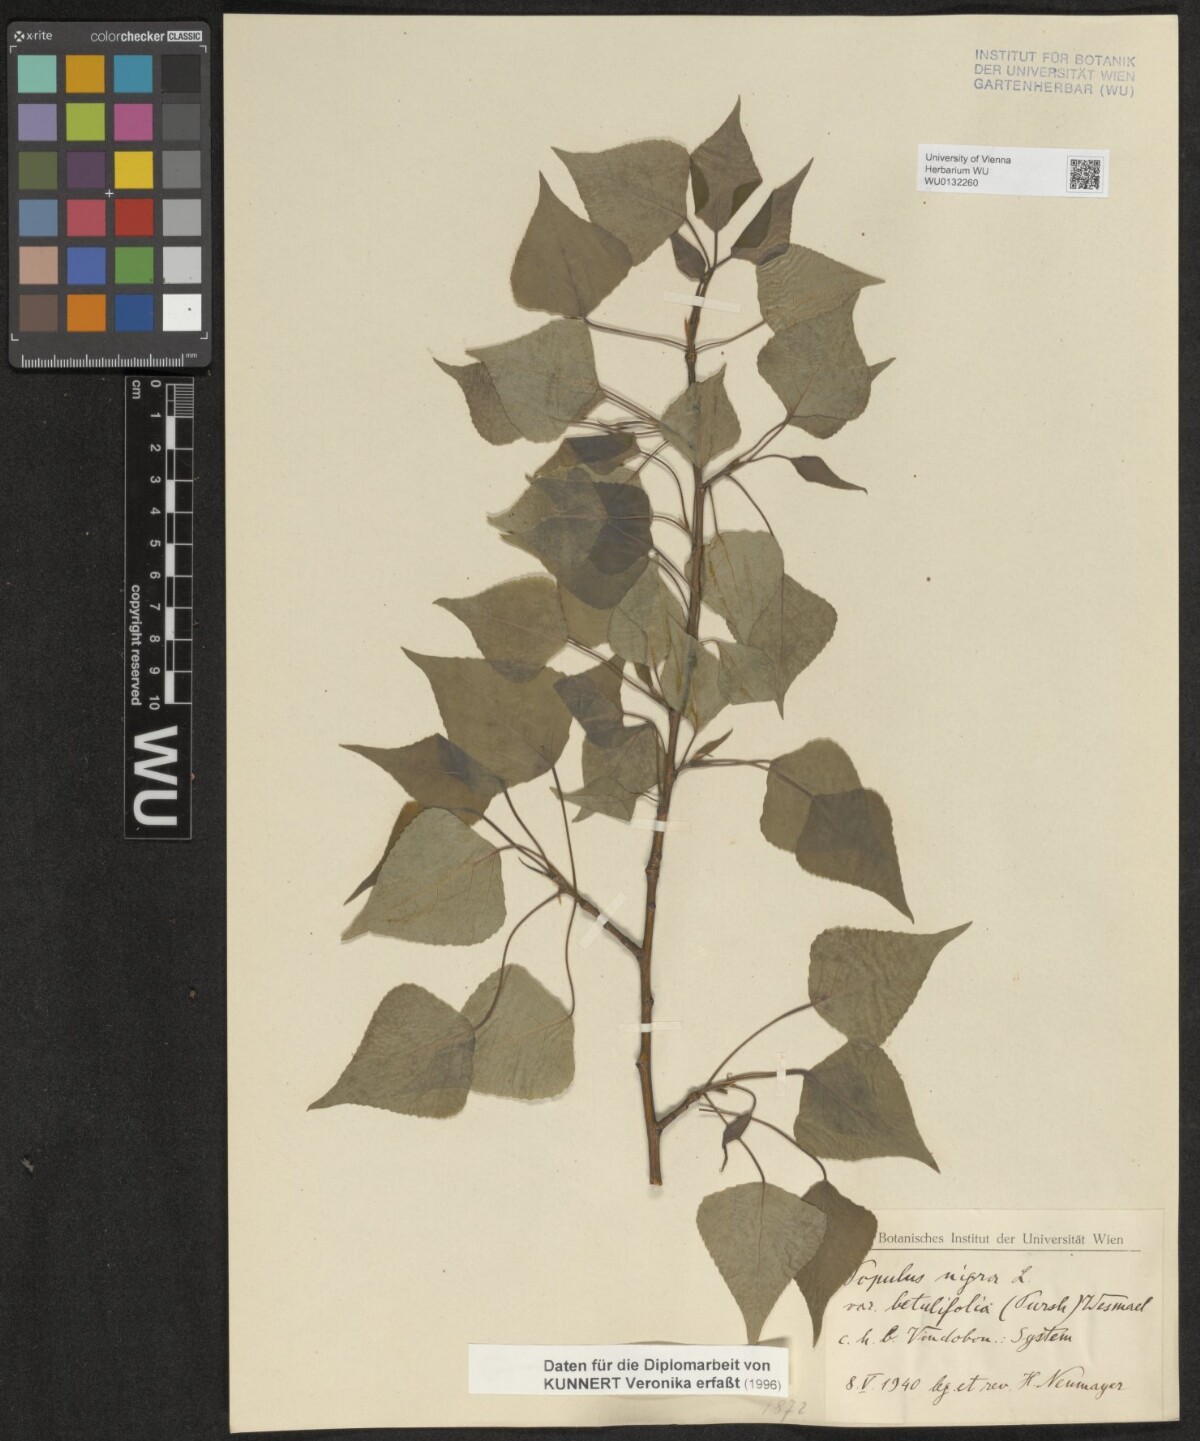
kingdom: Plantae
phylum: Tracheophyta
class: Magnoliopsida
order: Malpighiales
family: Salicaceae
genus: Populus
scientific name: Populus nigra
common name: Black poplar
